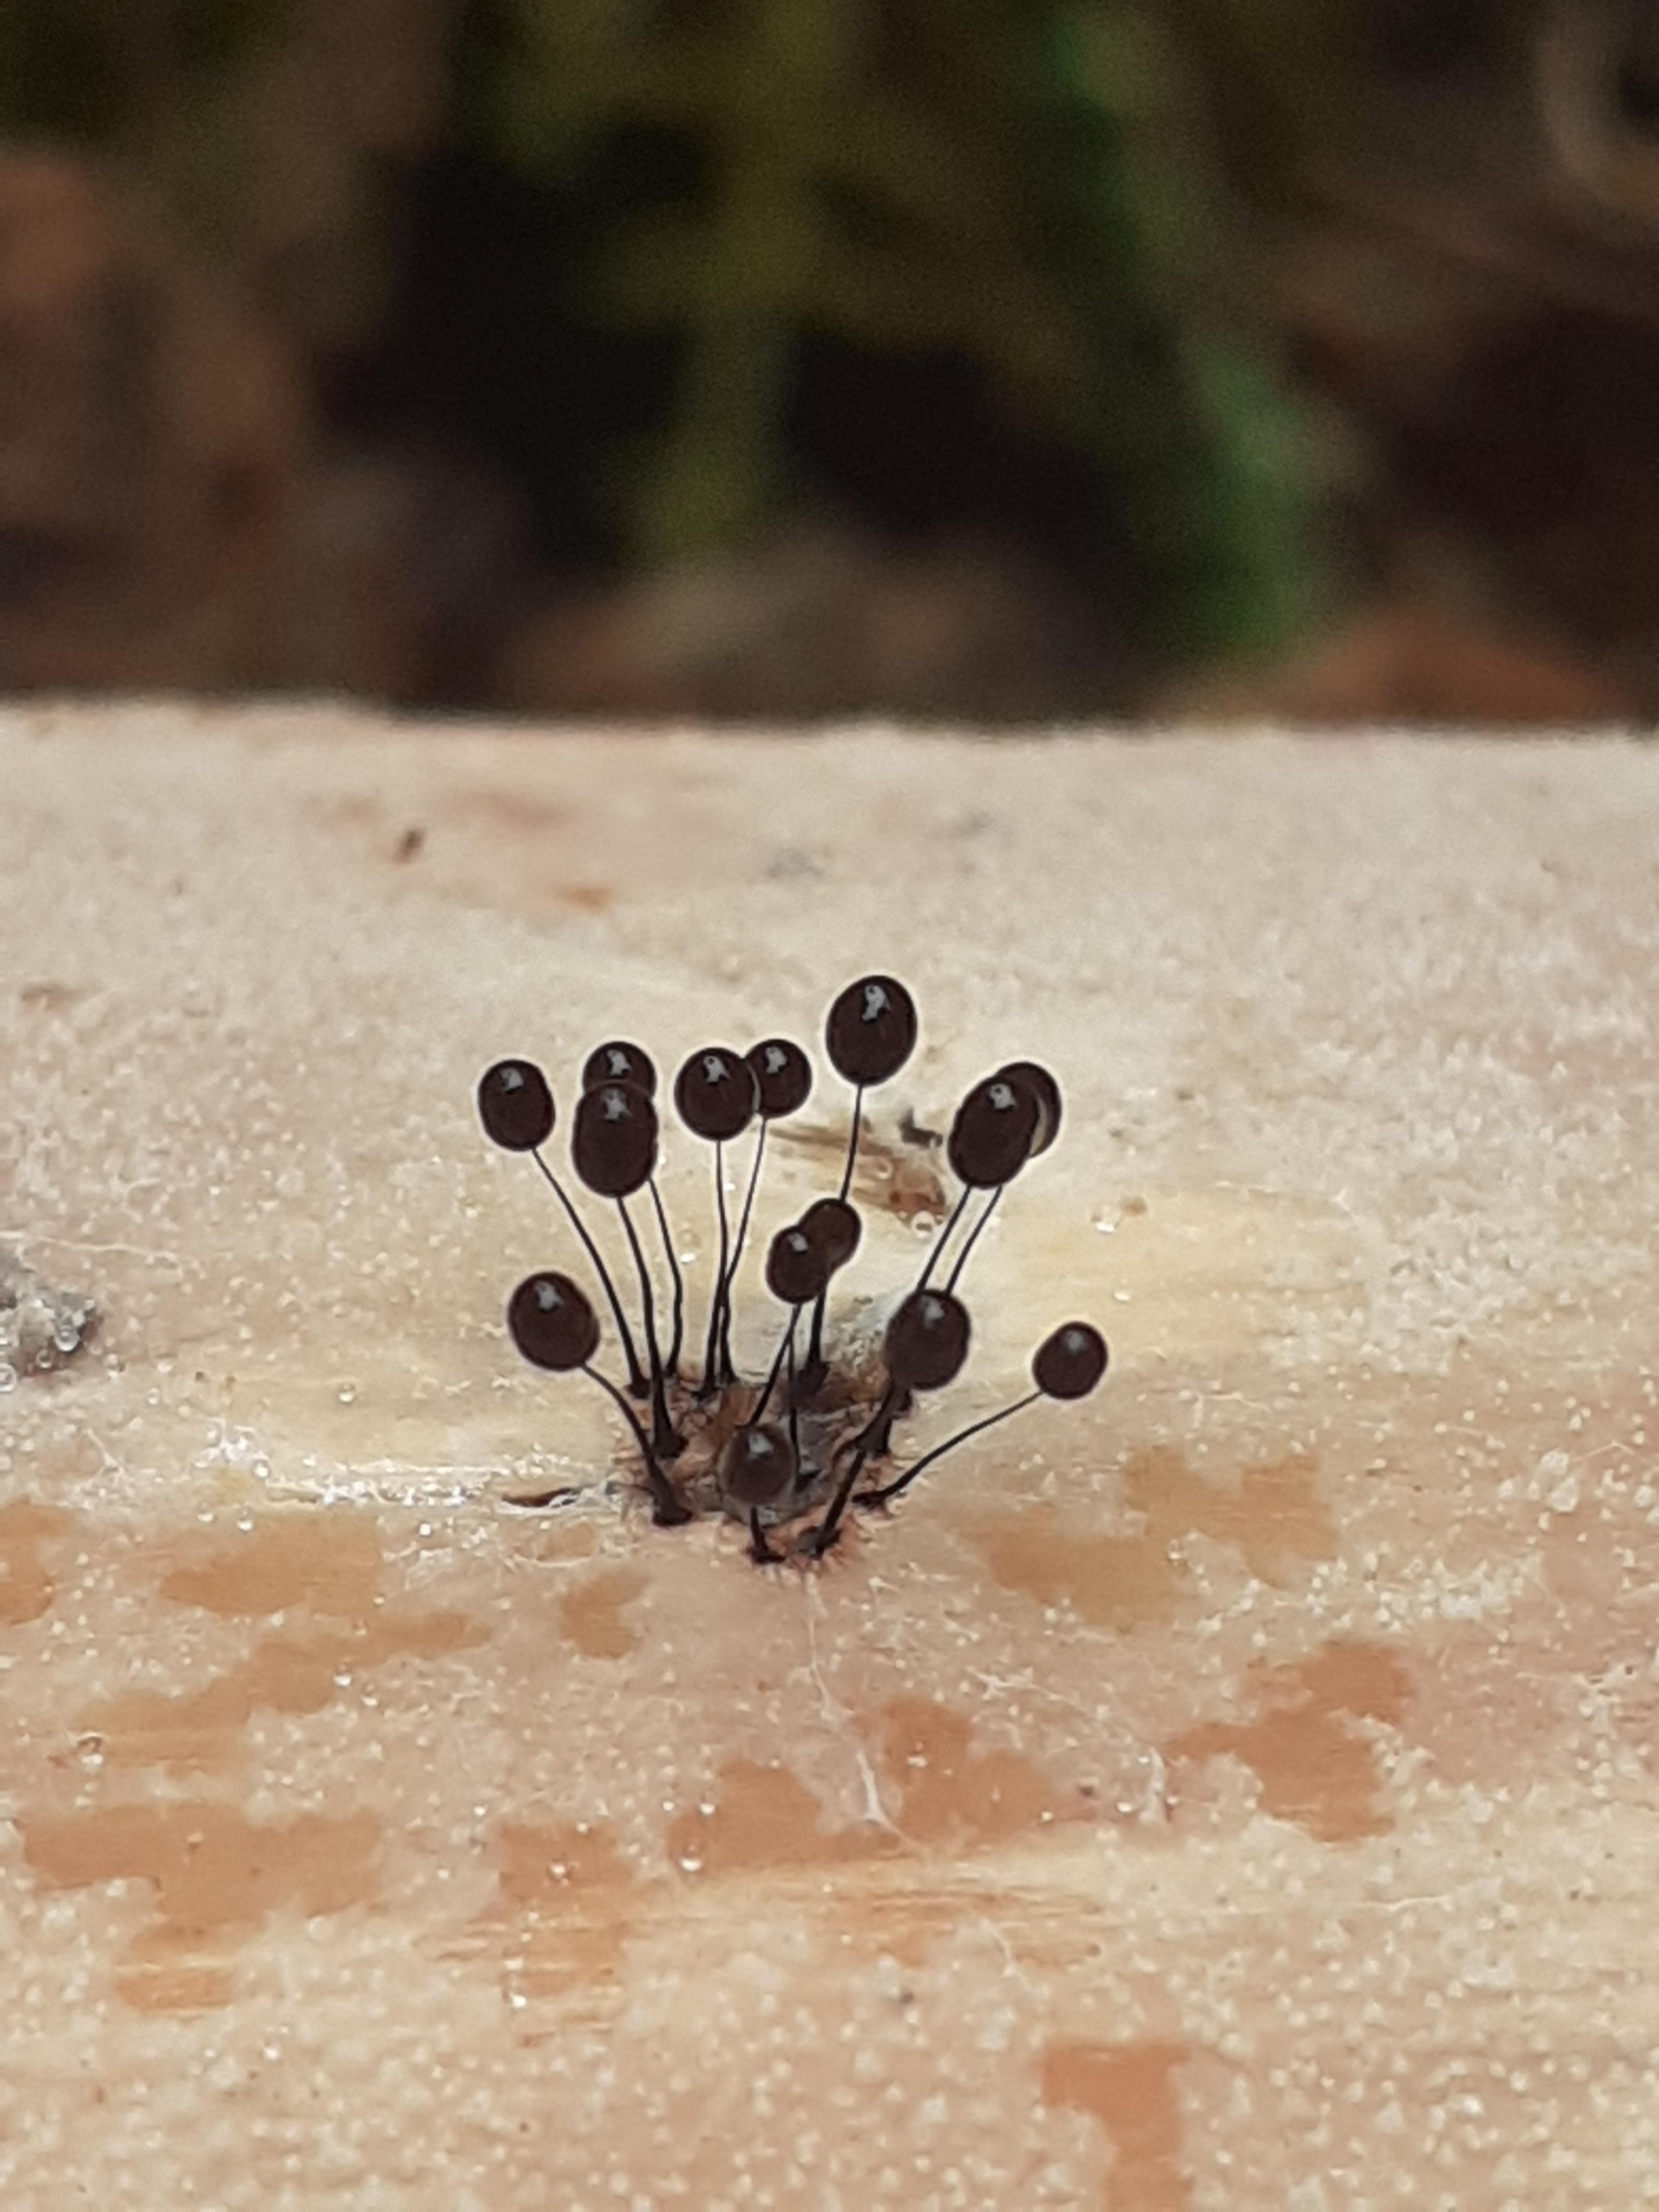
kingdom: Protozoa
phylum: Mycetozoa
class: Myxomycetes
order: Stemonitidales
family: Stemonitidaceae
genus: Comatricha
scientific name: Comatricha nigra
